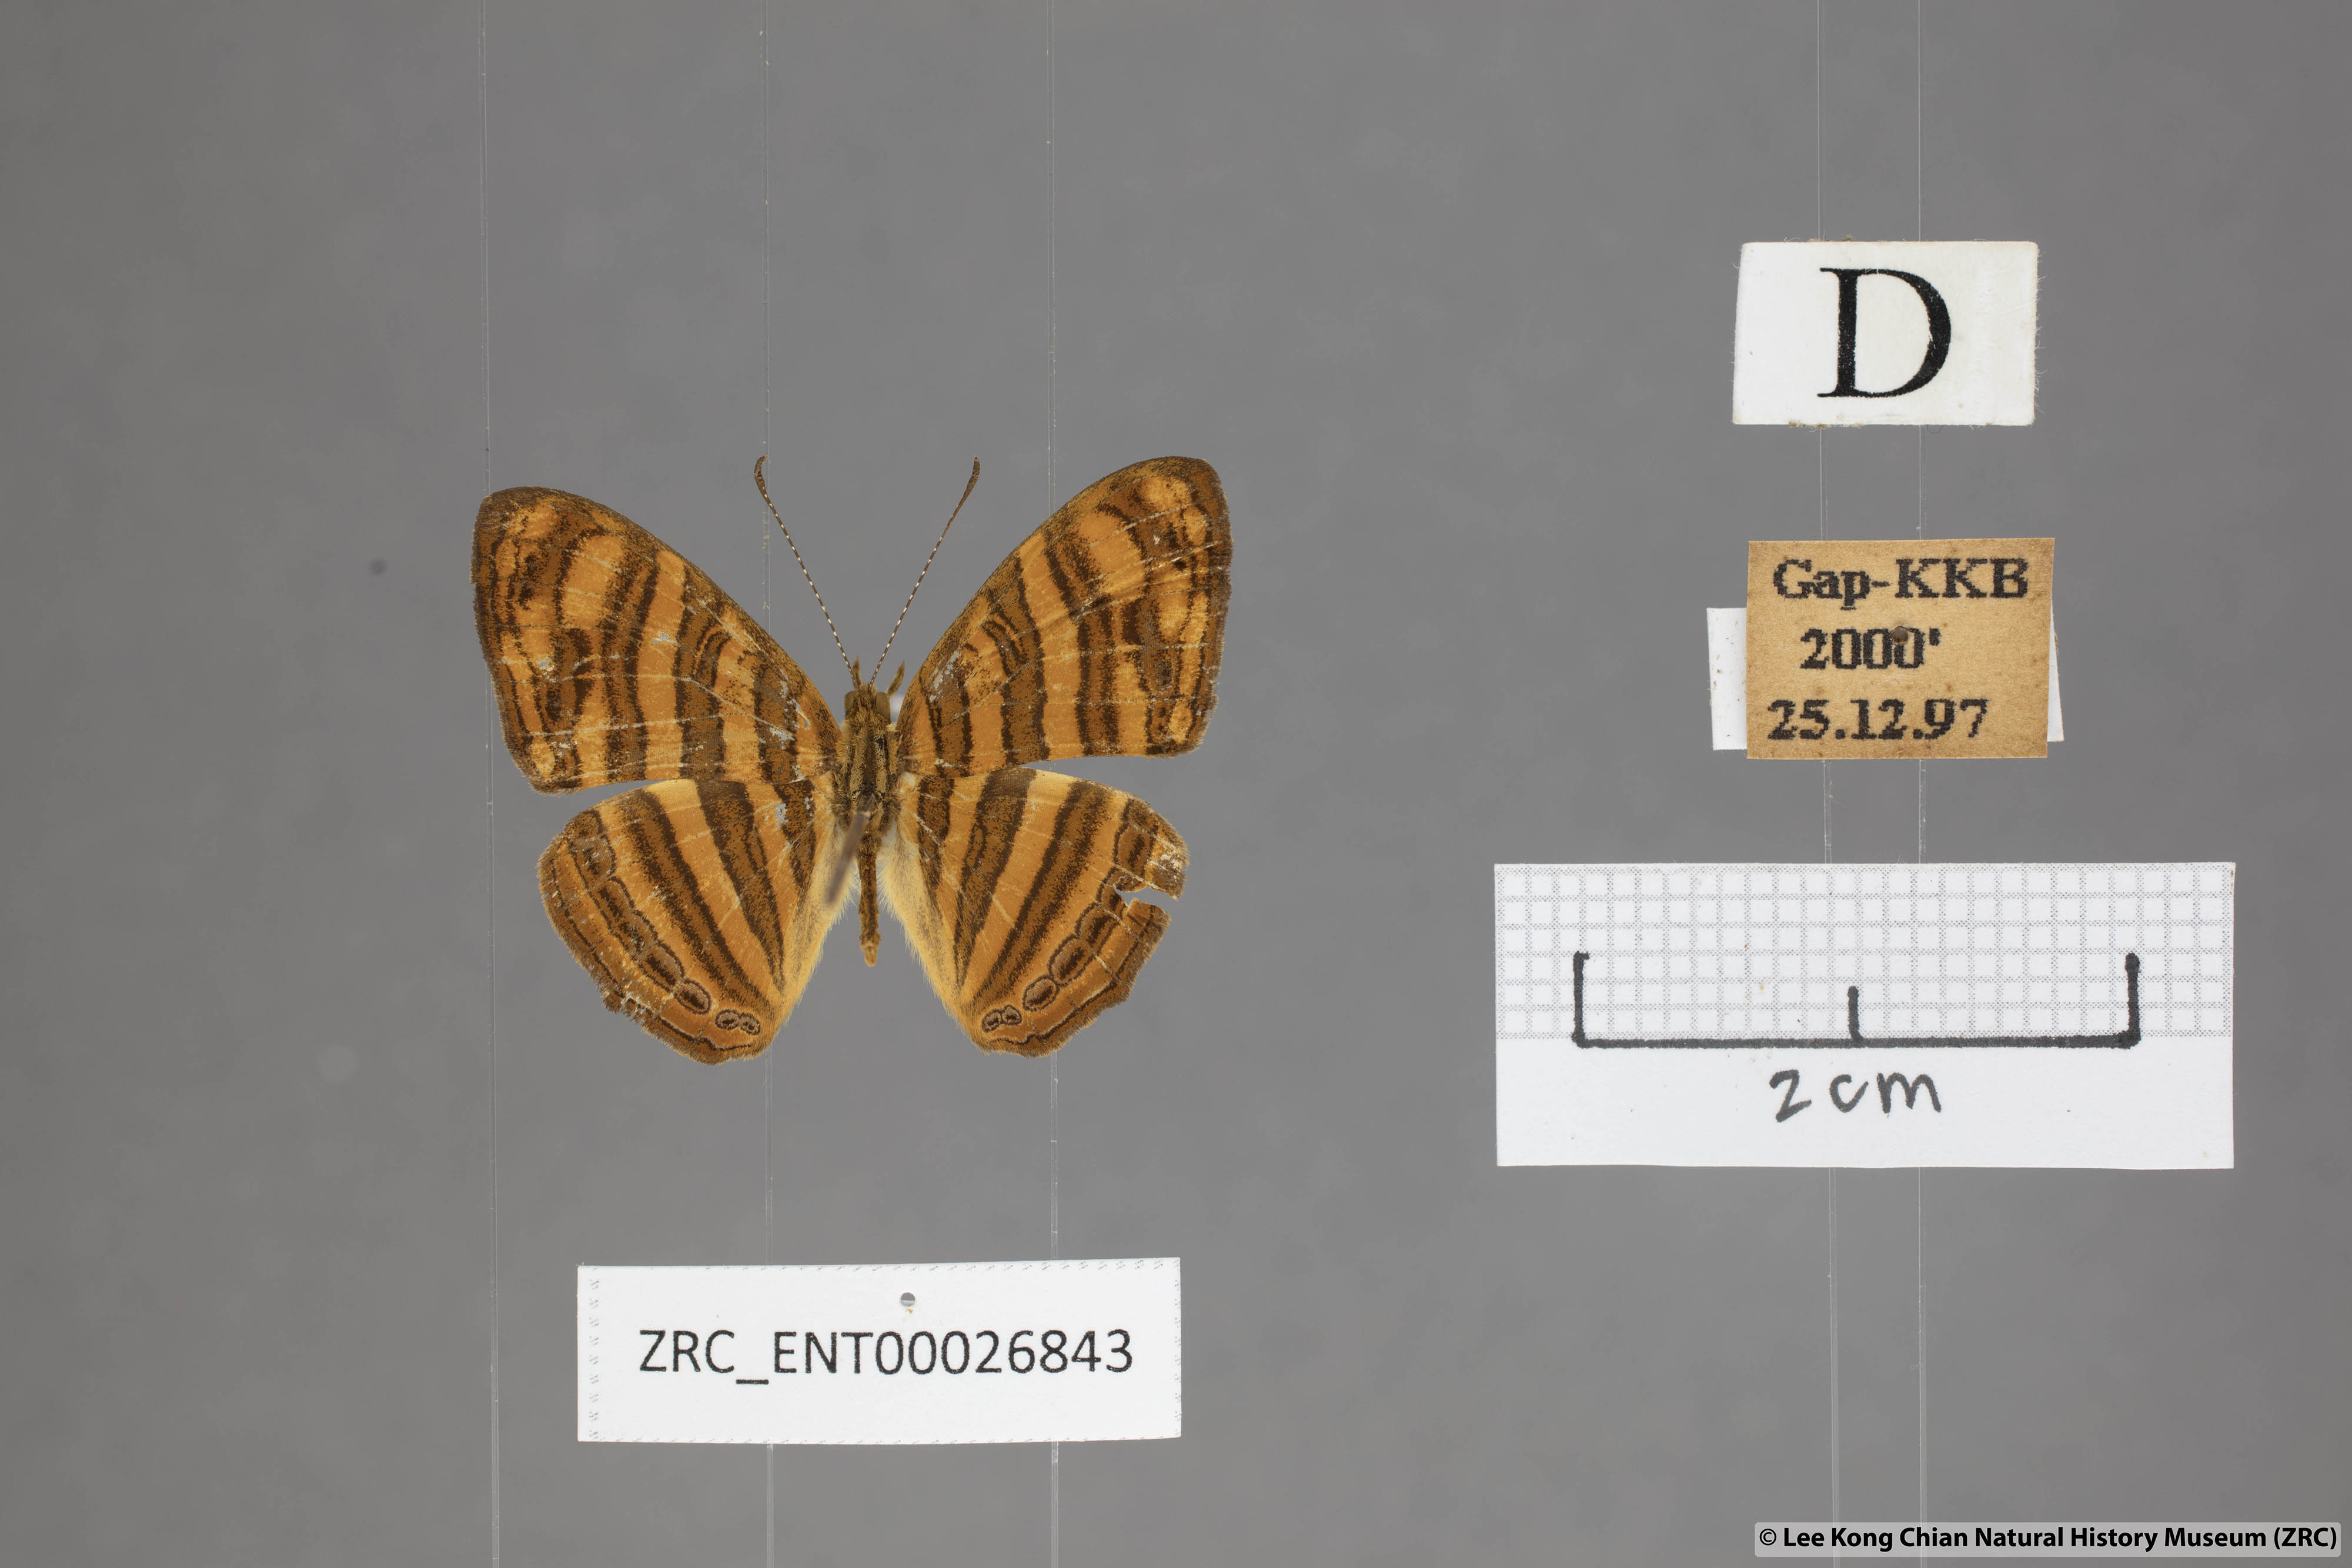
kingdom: Animalia
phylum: Arthropoda
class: Insecta
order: Lepidoptera
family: Nymphalidae
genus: Chersonesia
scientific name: Chersonesia intermedia
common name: Intermediate maplet
